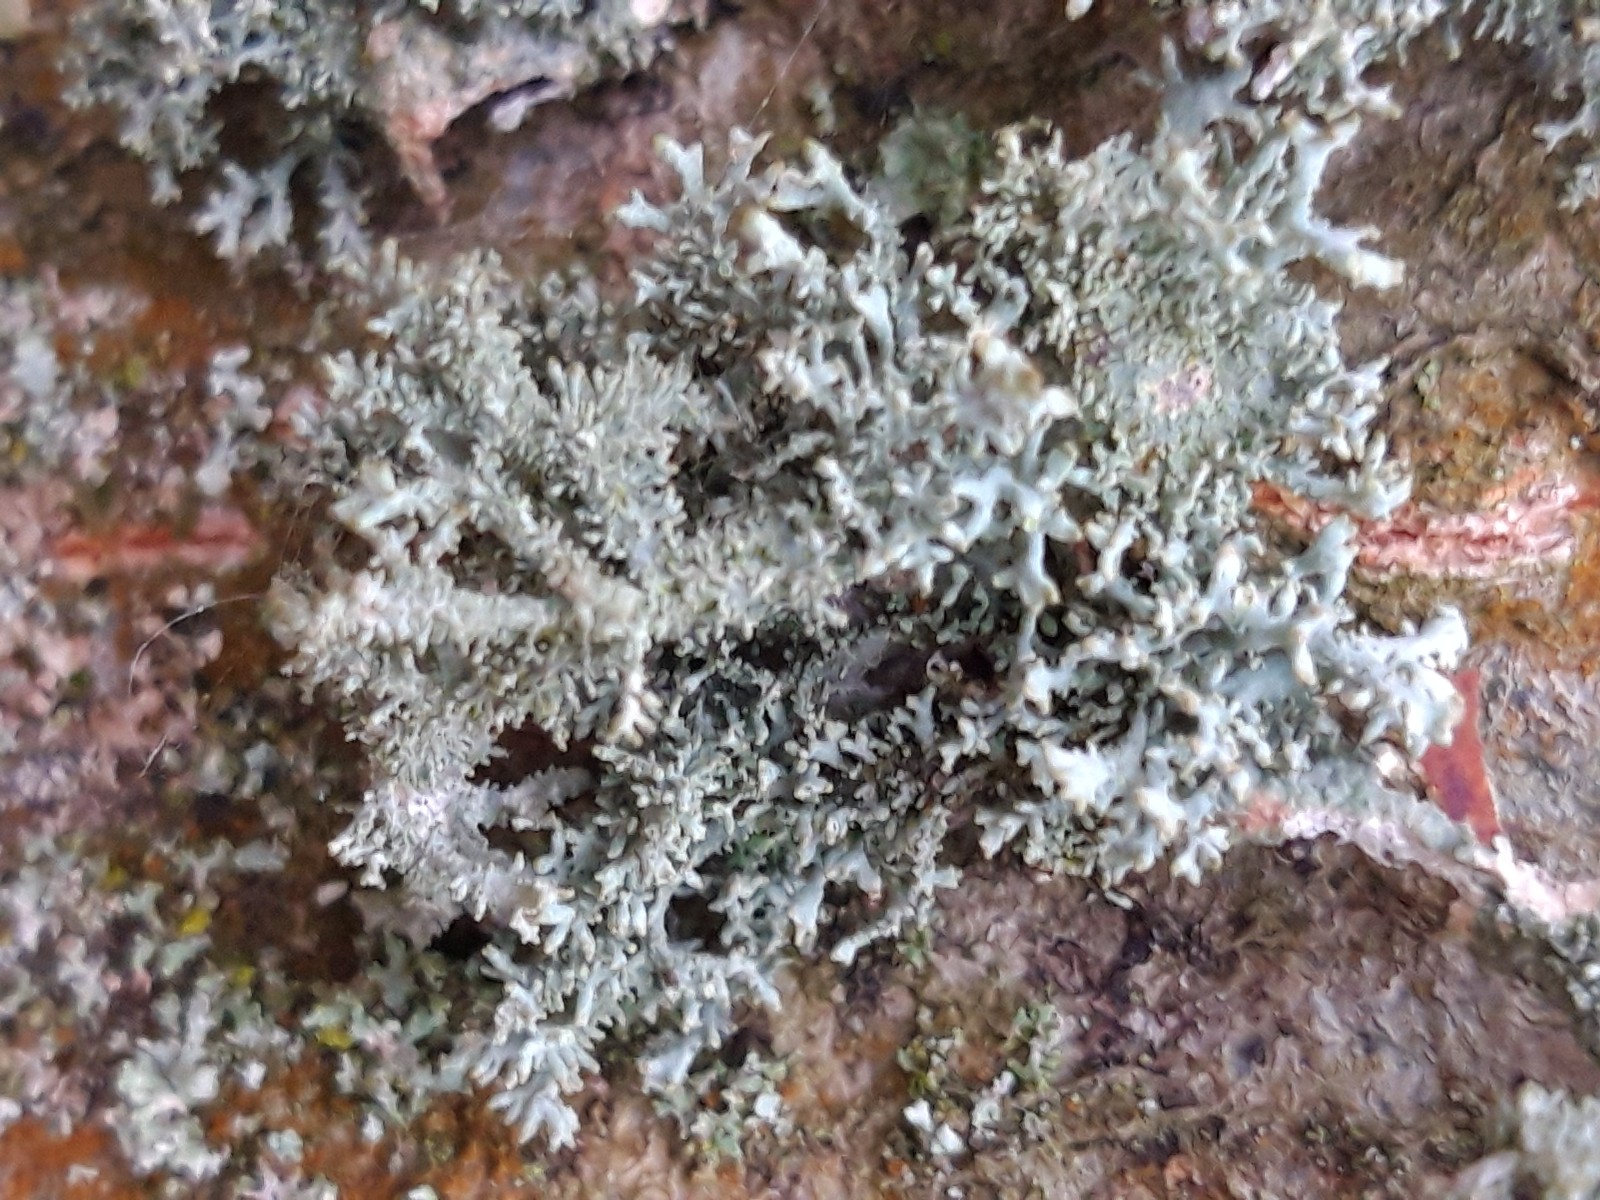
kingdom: Fungi
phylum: Ascomycota
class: Lecanoromycetes
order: Lecanorales
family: Parmeliaceae
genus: Pseudevernia
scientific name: Pseudevernia furfuracea
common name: grå fyrrelav
